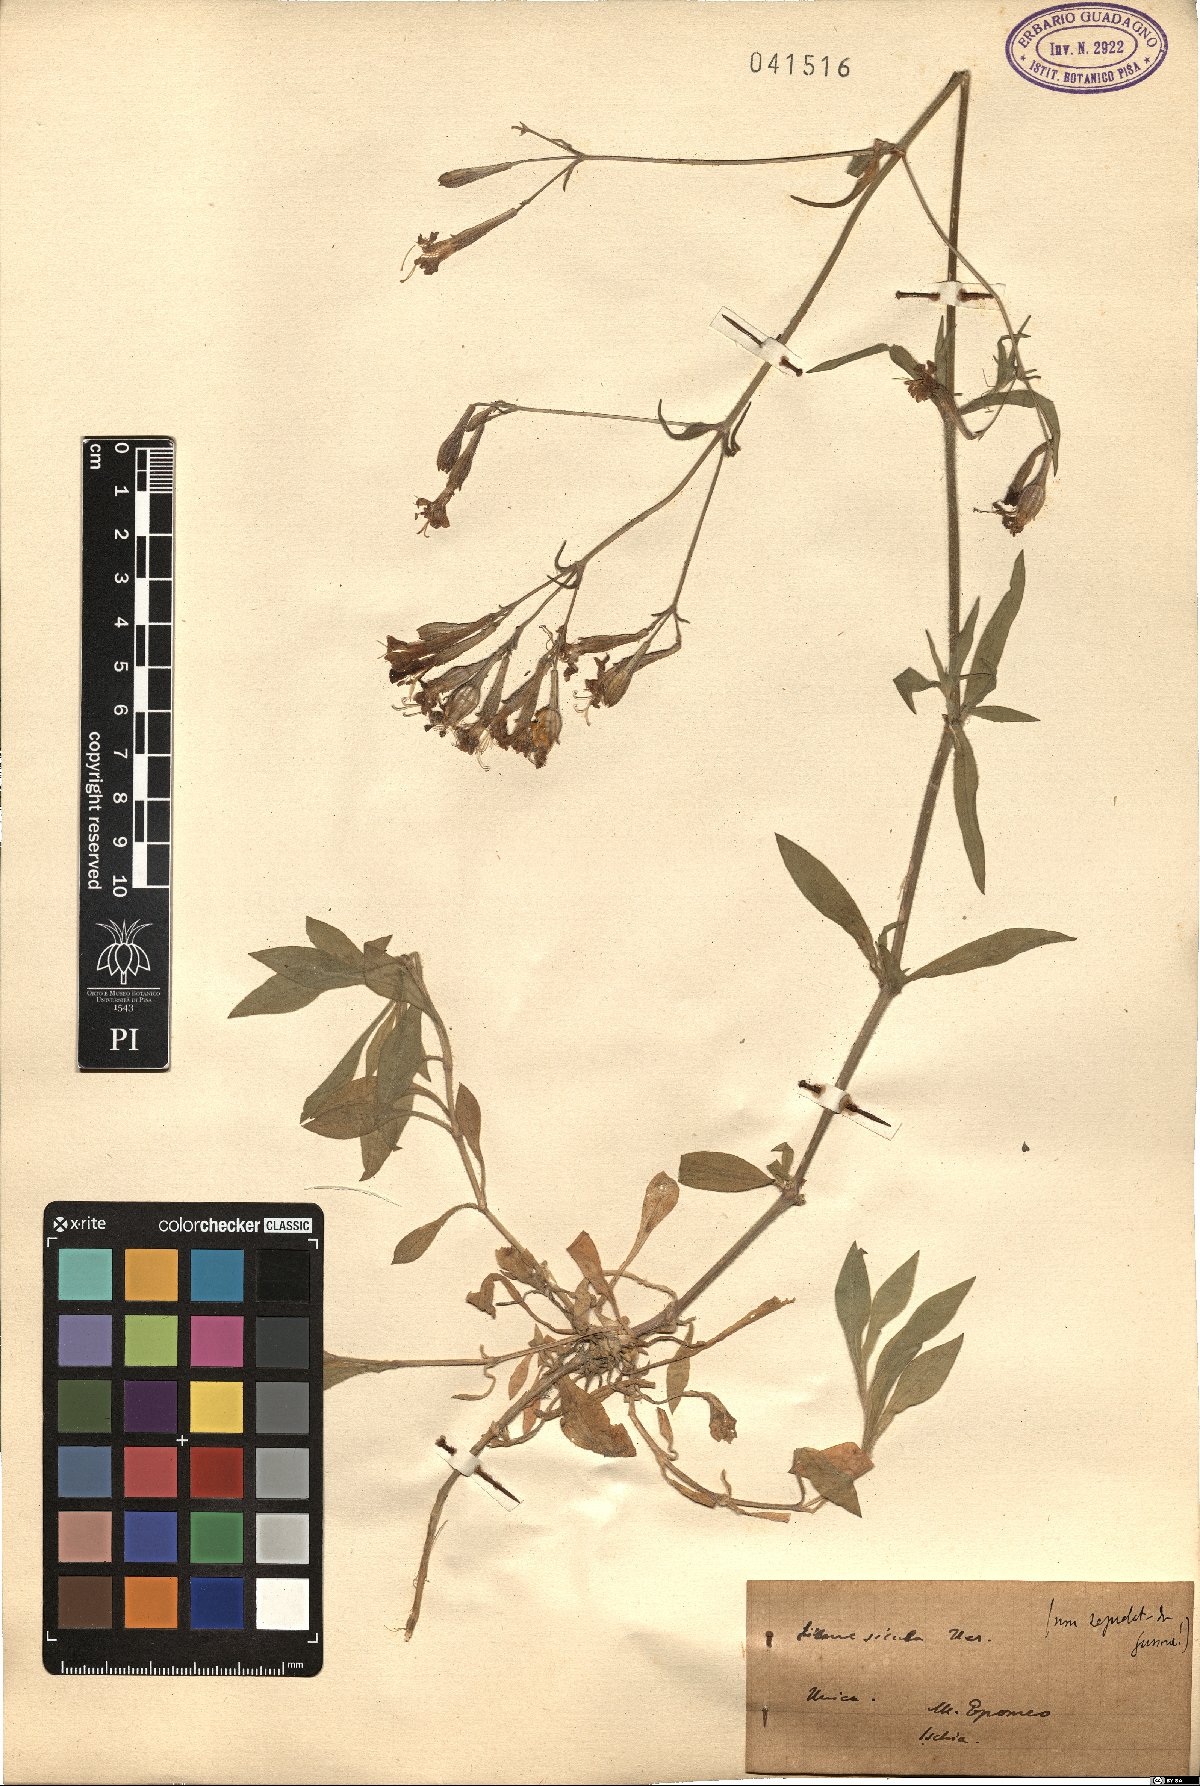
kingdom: Plantae
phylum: Tracheophyta
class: Magnoliopsida
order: Caryophyllales
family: Caryophyllaceae
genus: Silene
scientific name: Silene italica
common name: Italian catchfly
